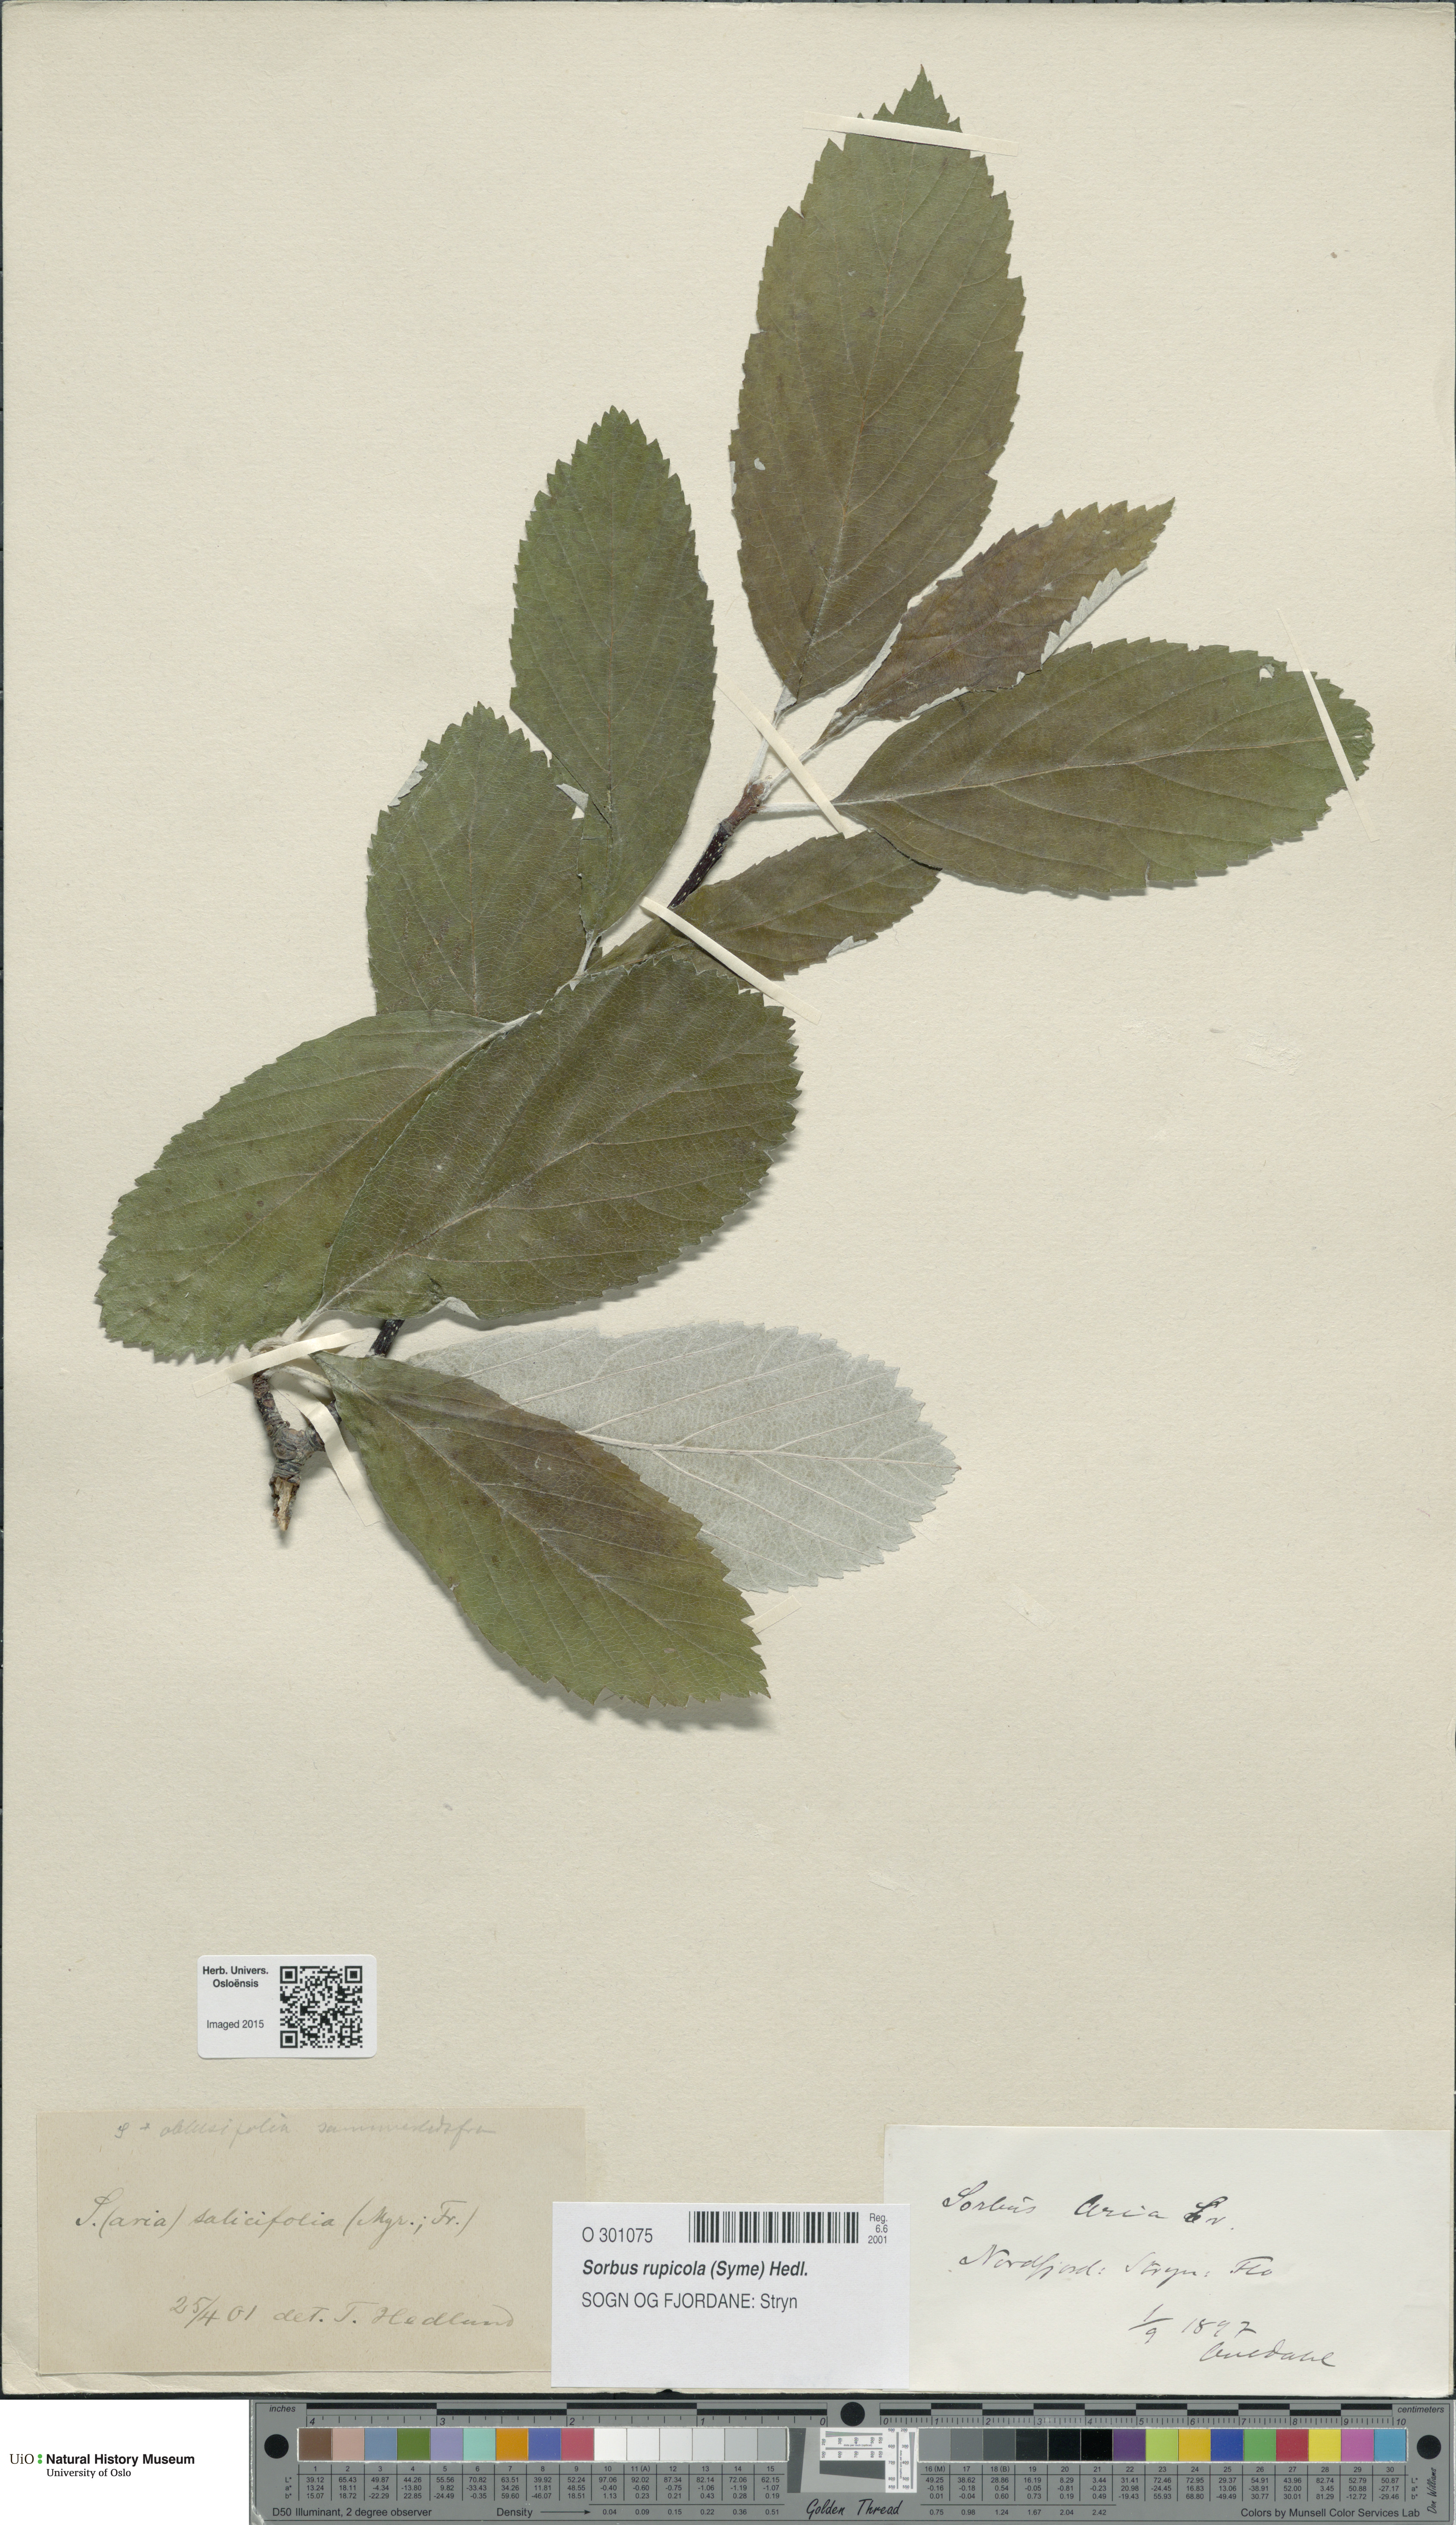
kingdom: Plantae
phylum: Tracheophyta
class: Magnoliopsida
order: Rosales
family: Rosaceae
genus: Aria
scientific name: Aria rupicola
